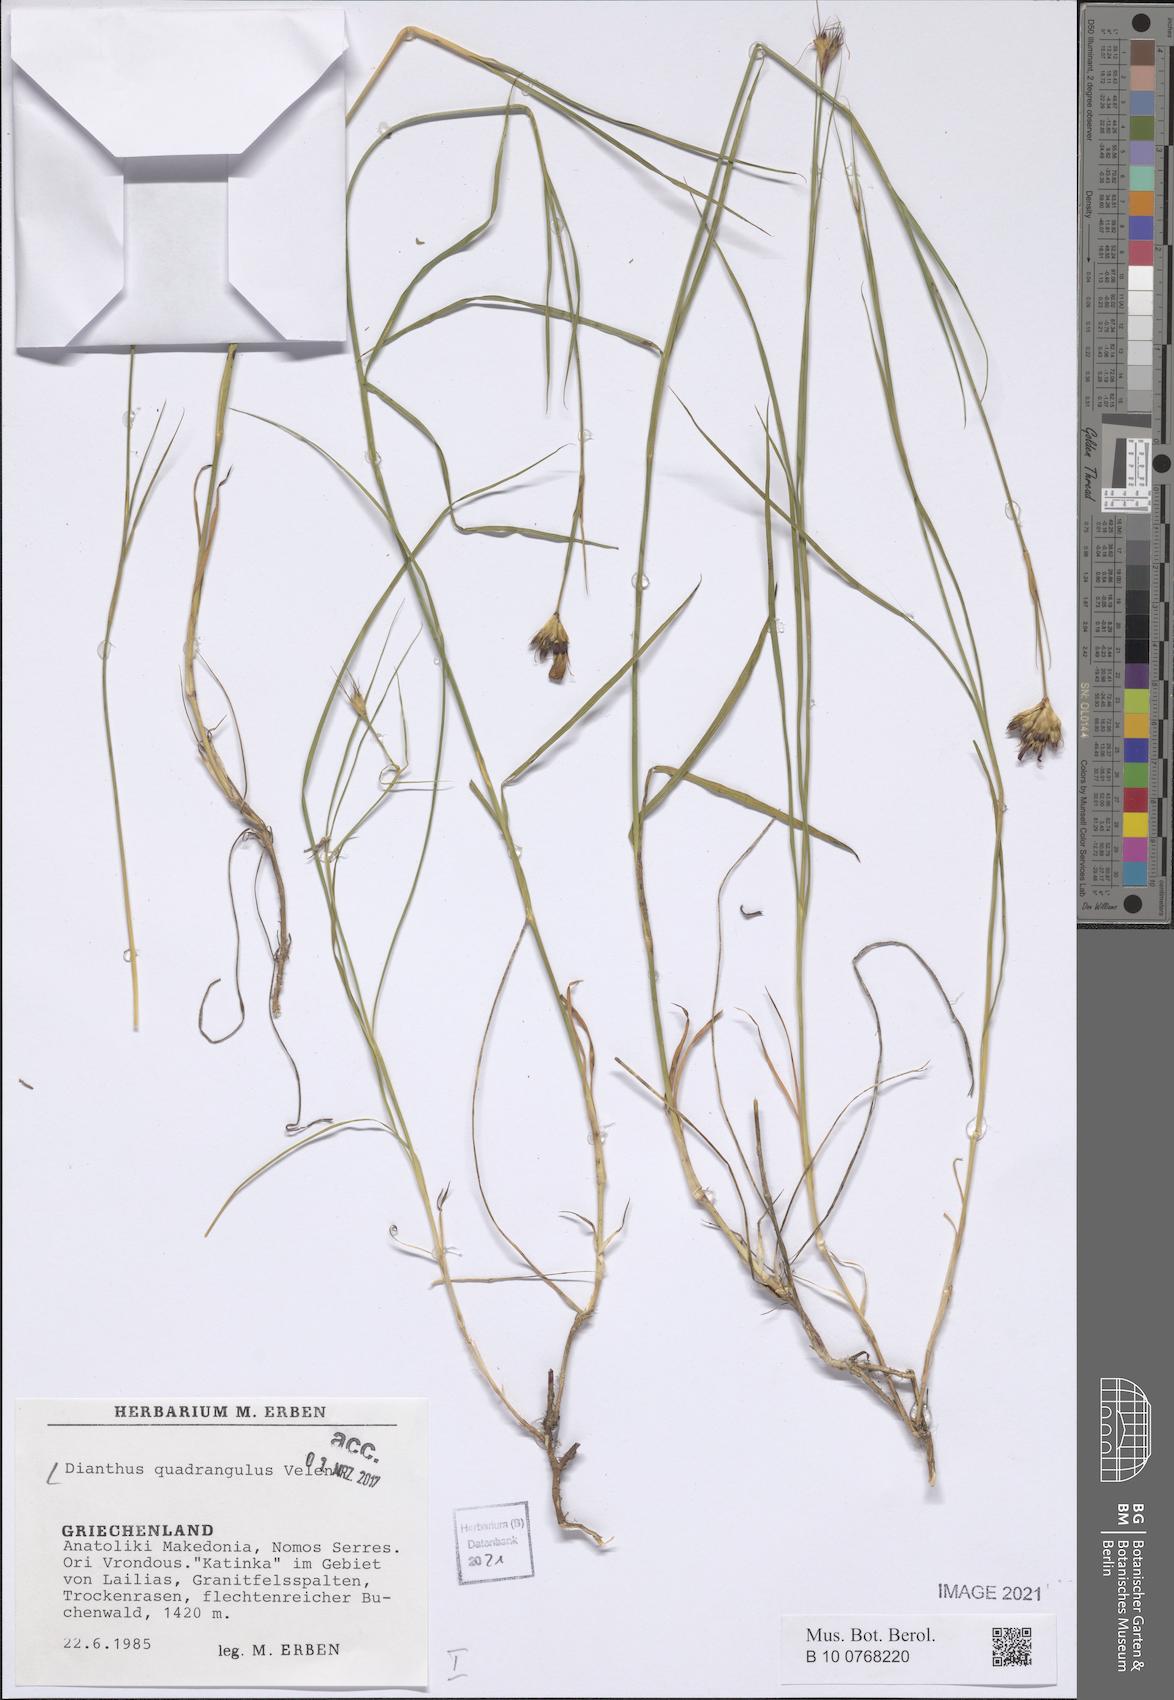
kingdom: Plantae
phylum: Tracheophyta
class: Magnoliopsida
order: Caryophyllales
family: Caryophyllaceae
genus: Dianthus
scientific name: Dianthus cruentus
